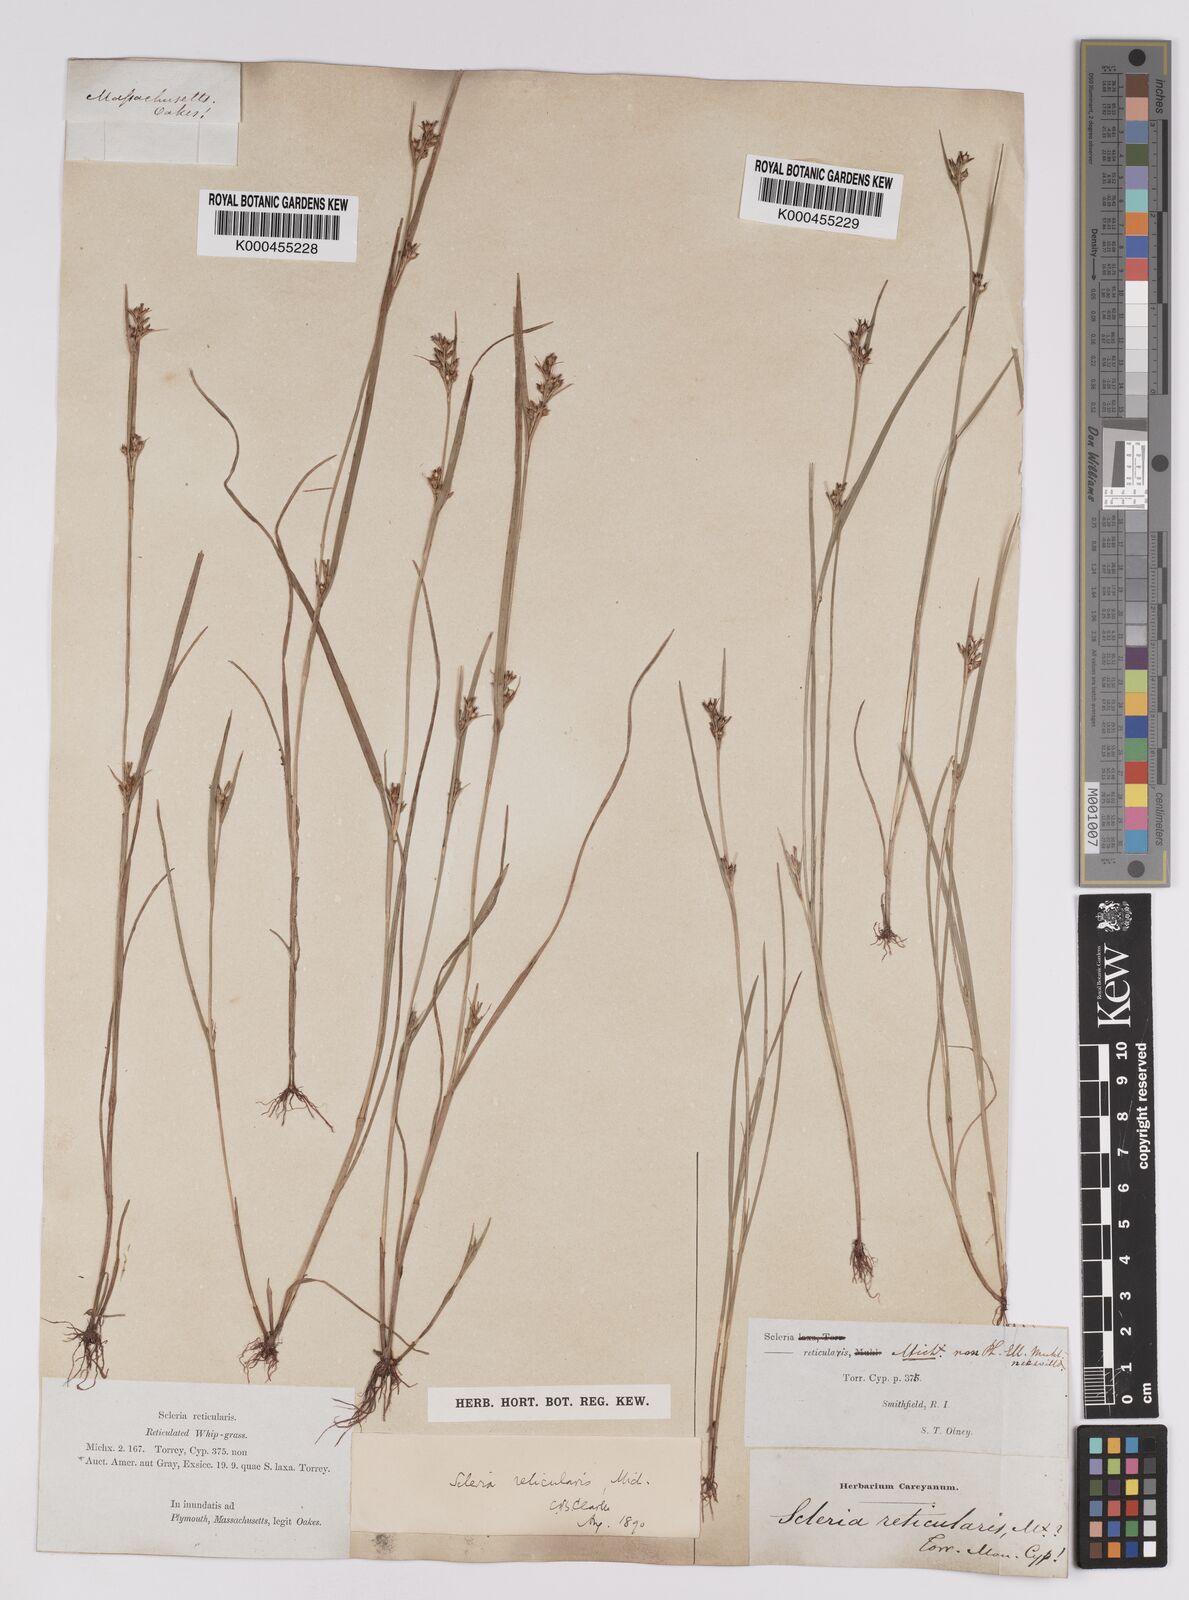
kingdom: Plantae
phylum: Tracheophyta
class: Liliopsida
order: Poales
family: Cyperaceae
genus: Scleria
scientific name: Scleria
